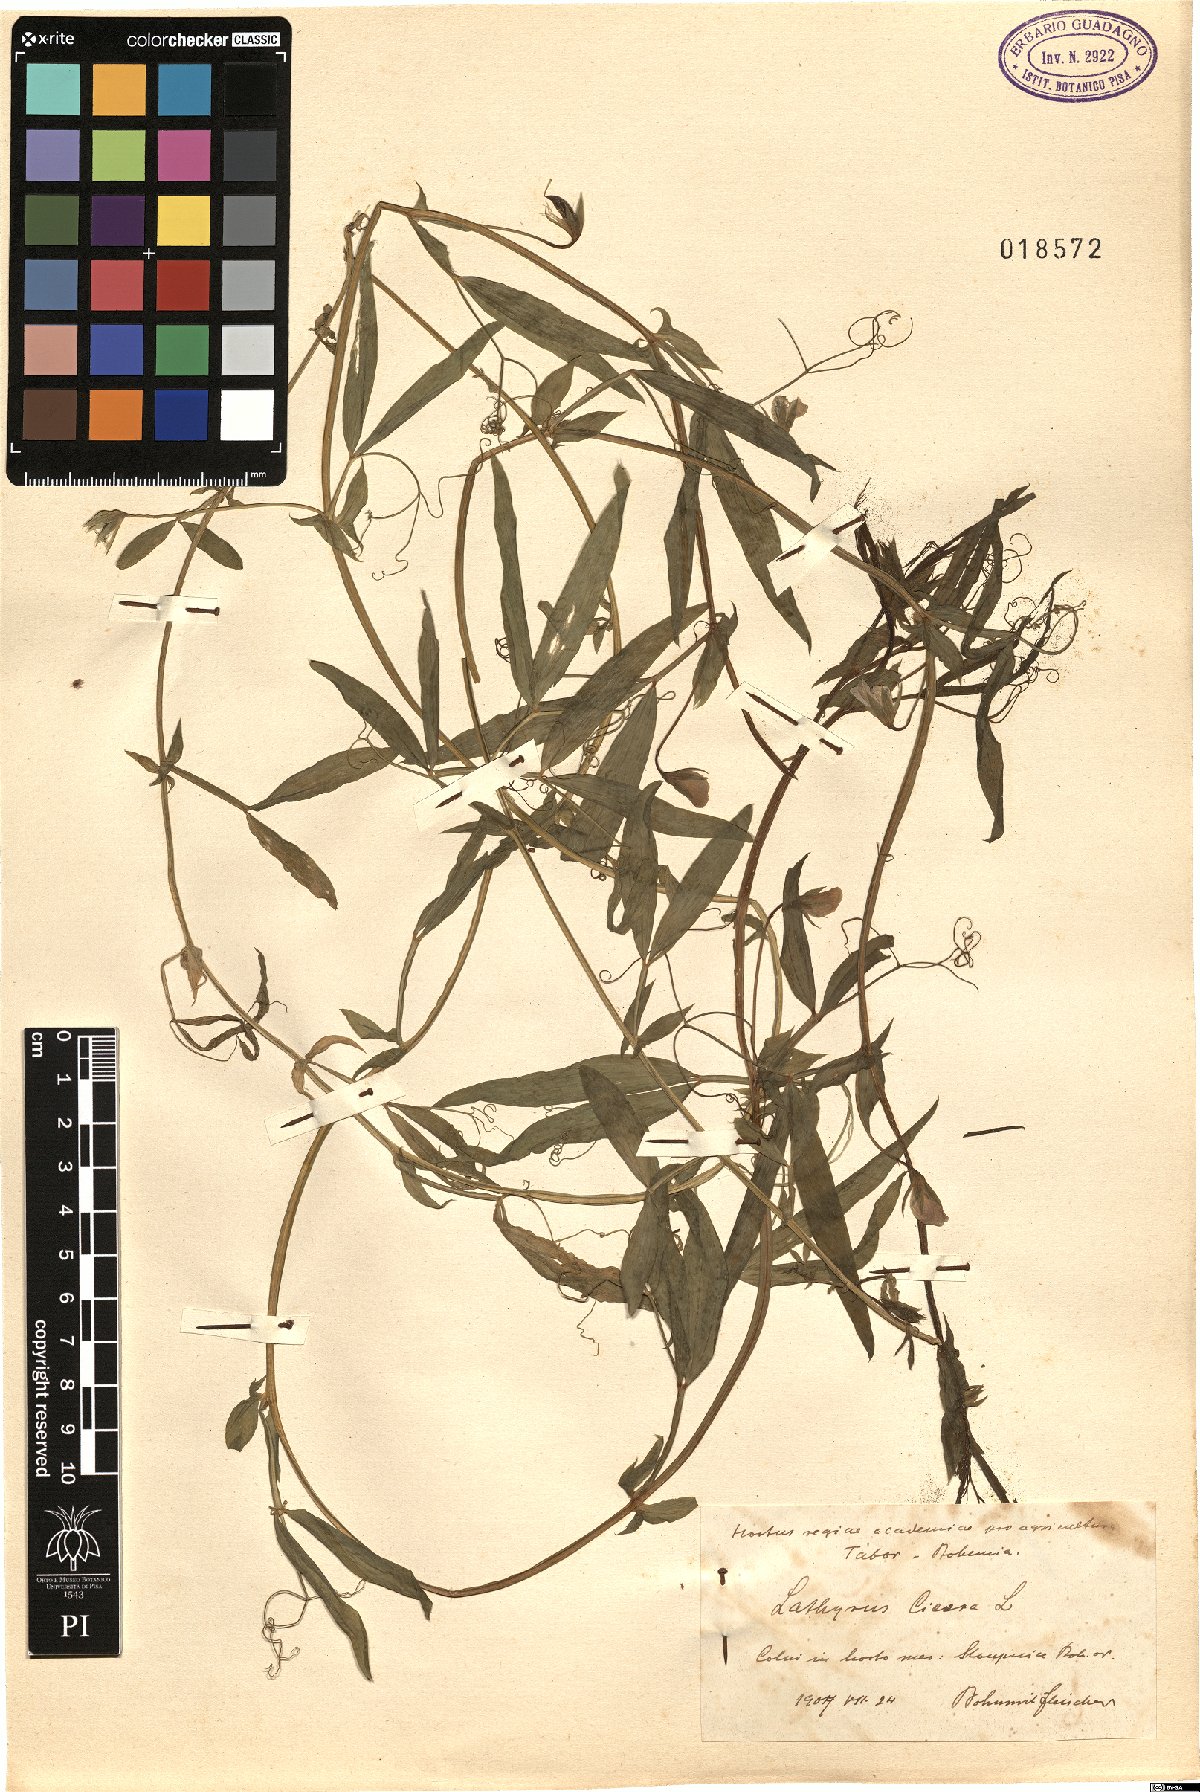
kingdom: Plantae
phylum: Tracheophyta
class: Magnoliopsida
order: Fabales
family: Fabaceae
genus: Lathyrus
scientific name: Lathyrus cicera
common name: Red vetchling
